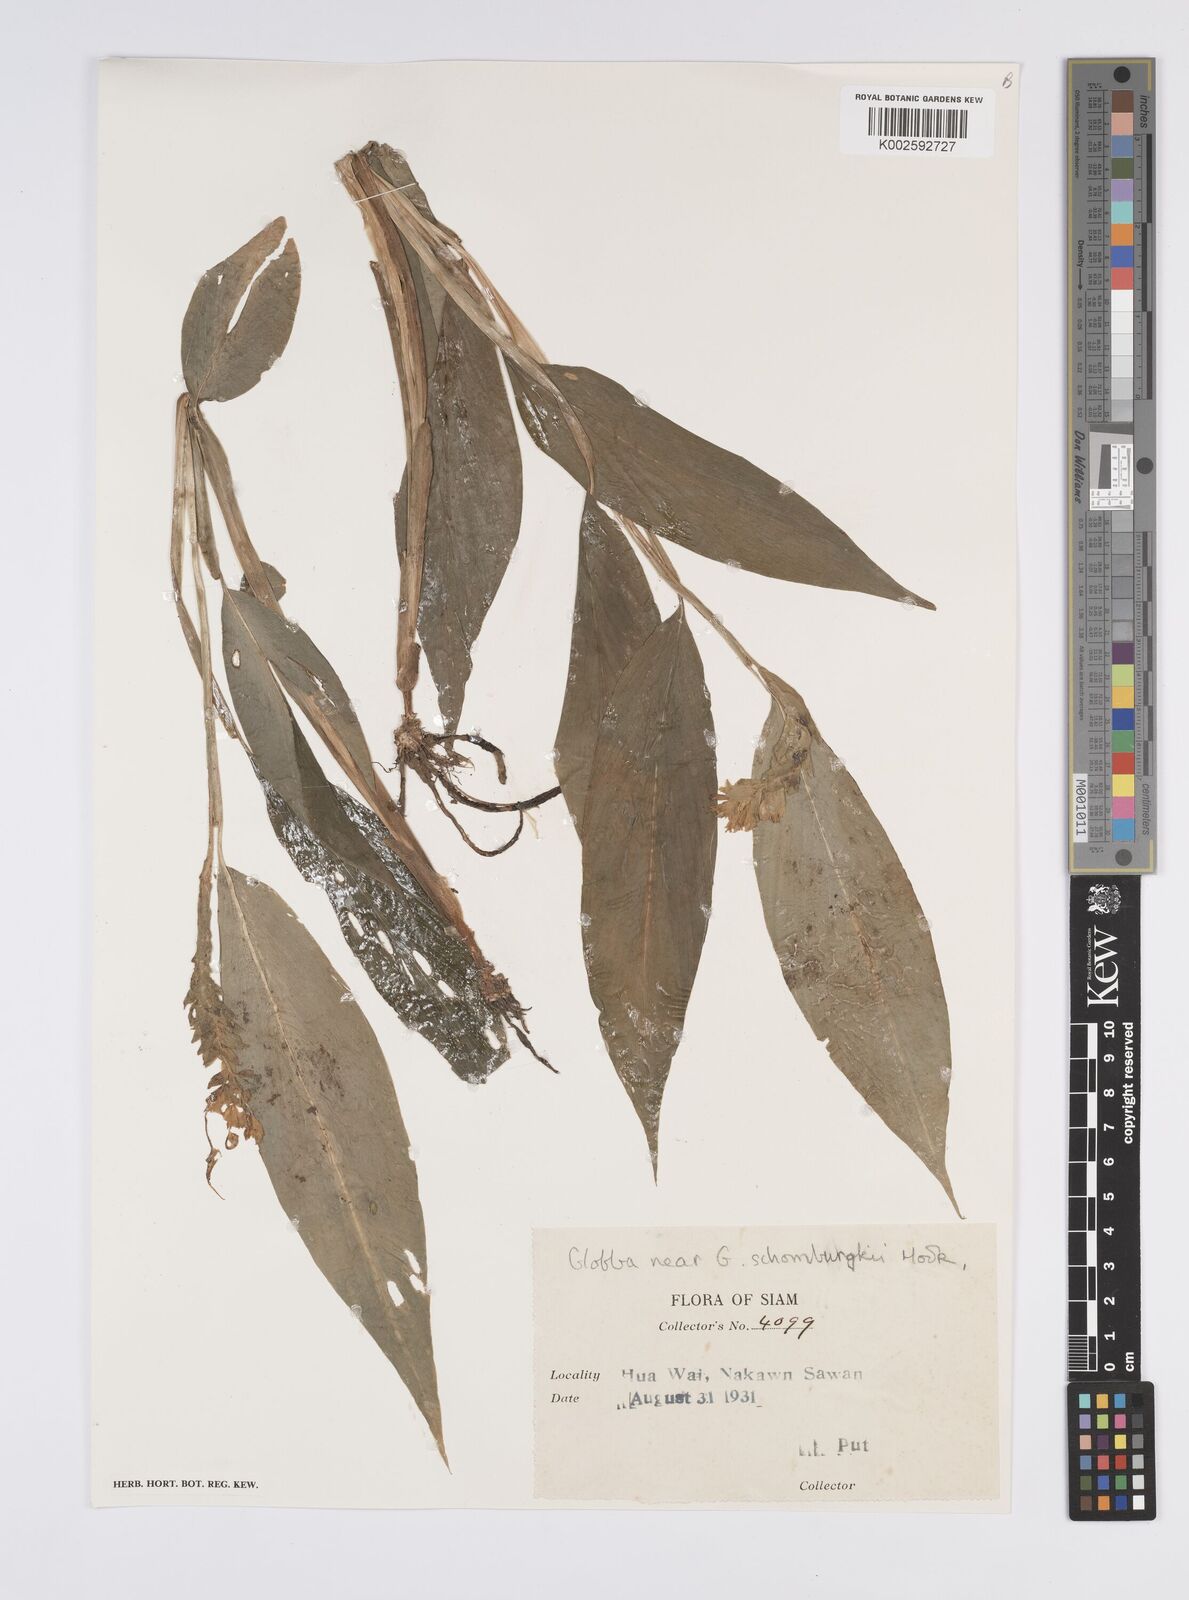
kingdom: Plantae
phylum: Tracheophyta
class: Liliopsida
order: Zingiberales
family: Zingiberaceae
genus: Globba
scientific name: Globba schomburgkii
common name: Dancing girl ginger
